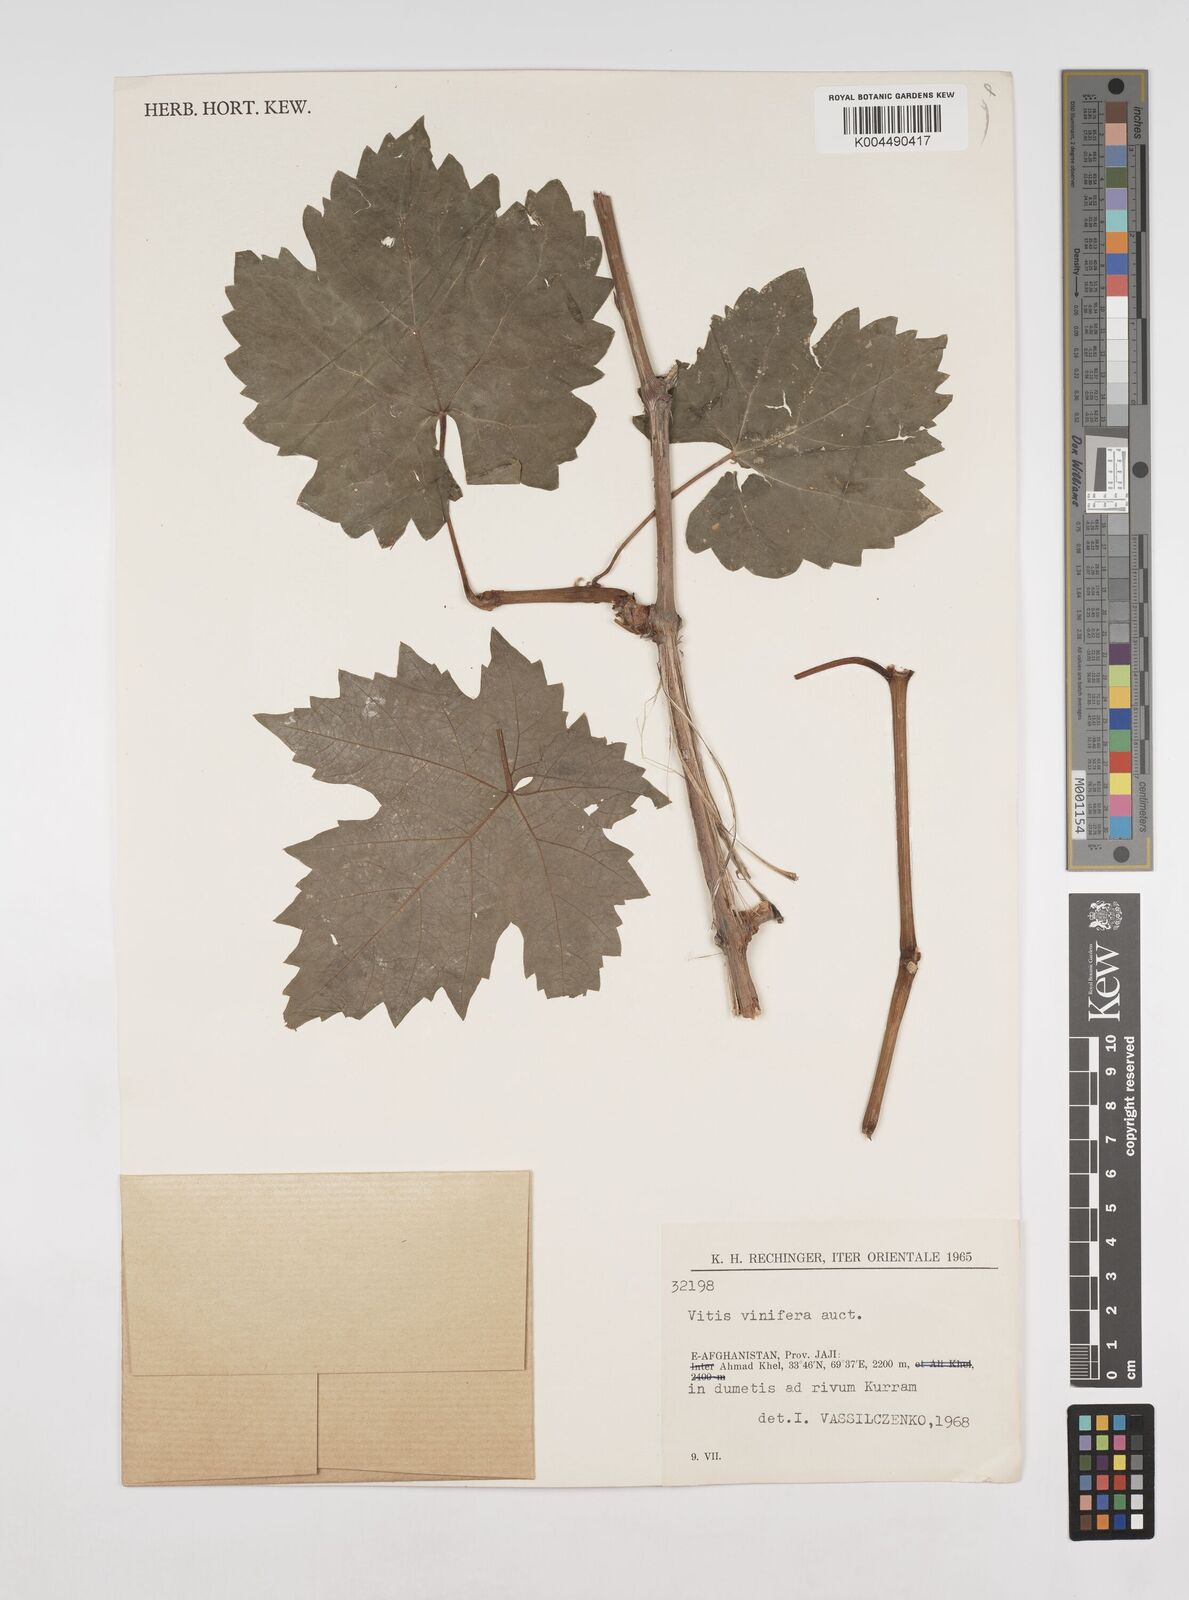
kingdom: Plantae
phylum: Tracheophyta
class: Magnoliopsida
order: Vitales
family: Vitaceae
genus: Vitis
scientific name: Vitis
